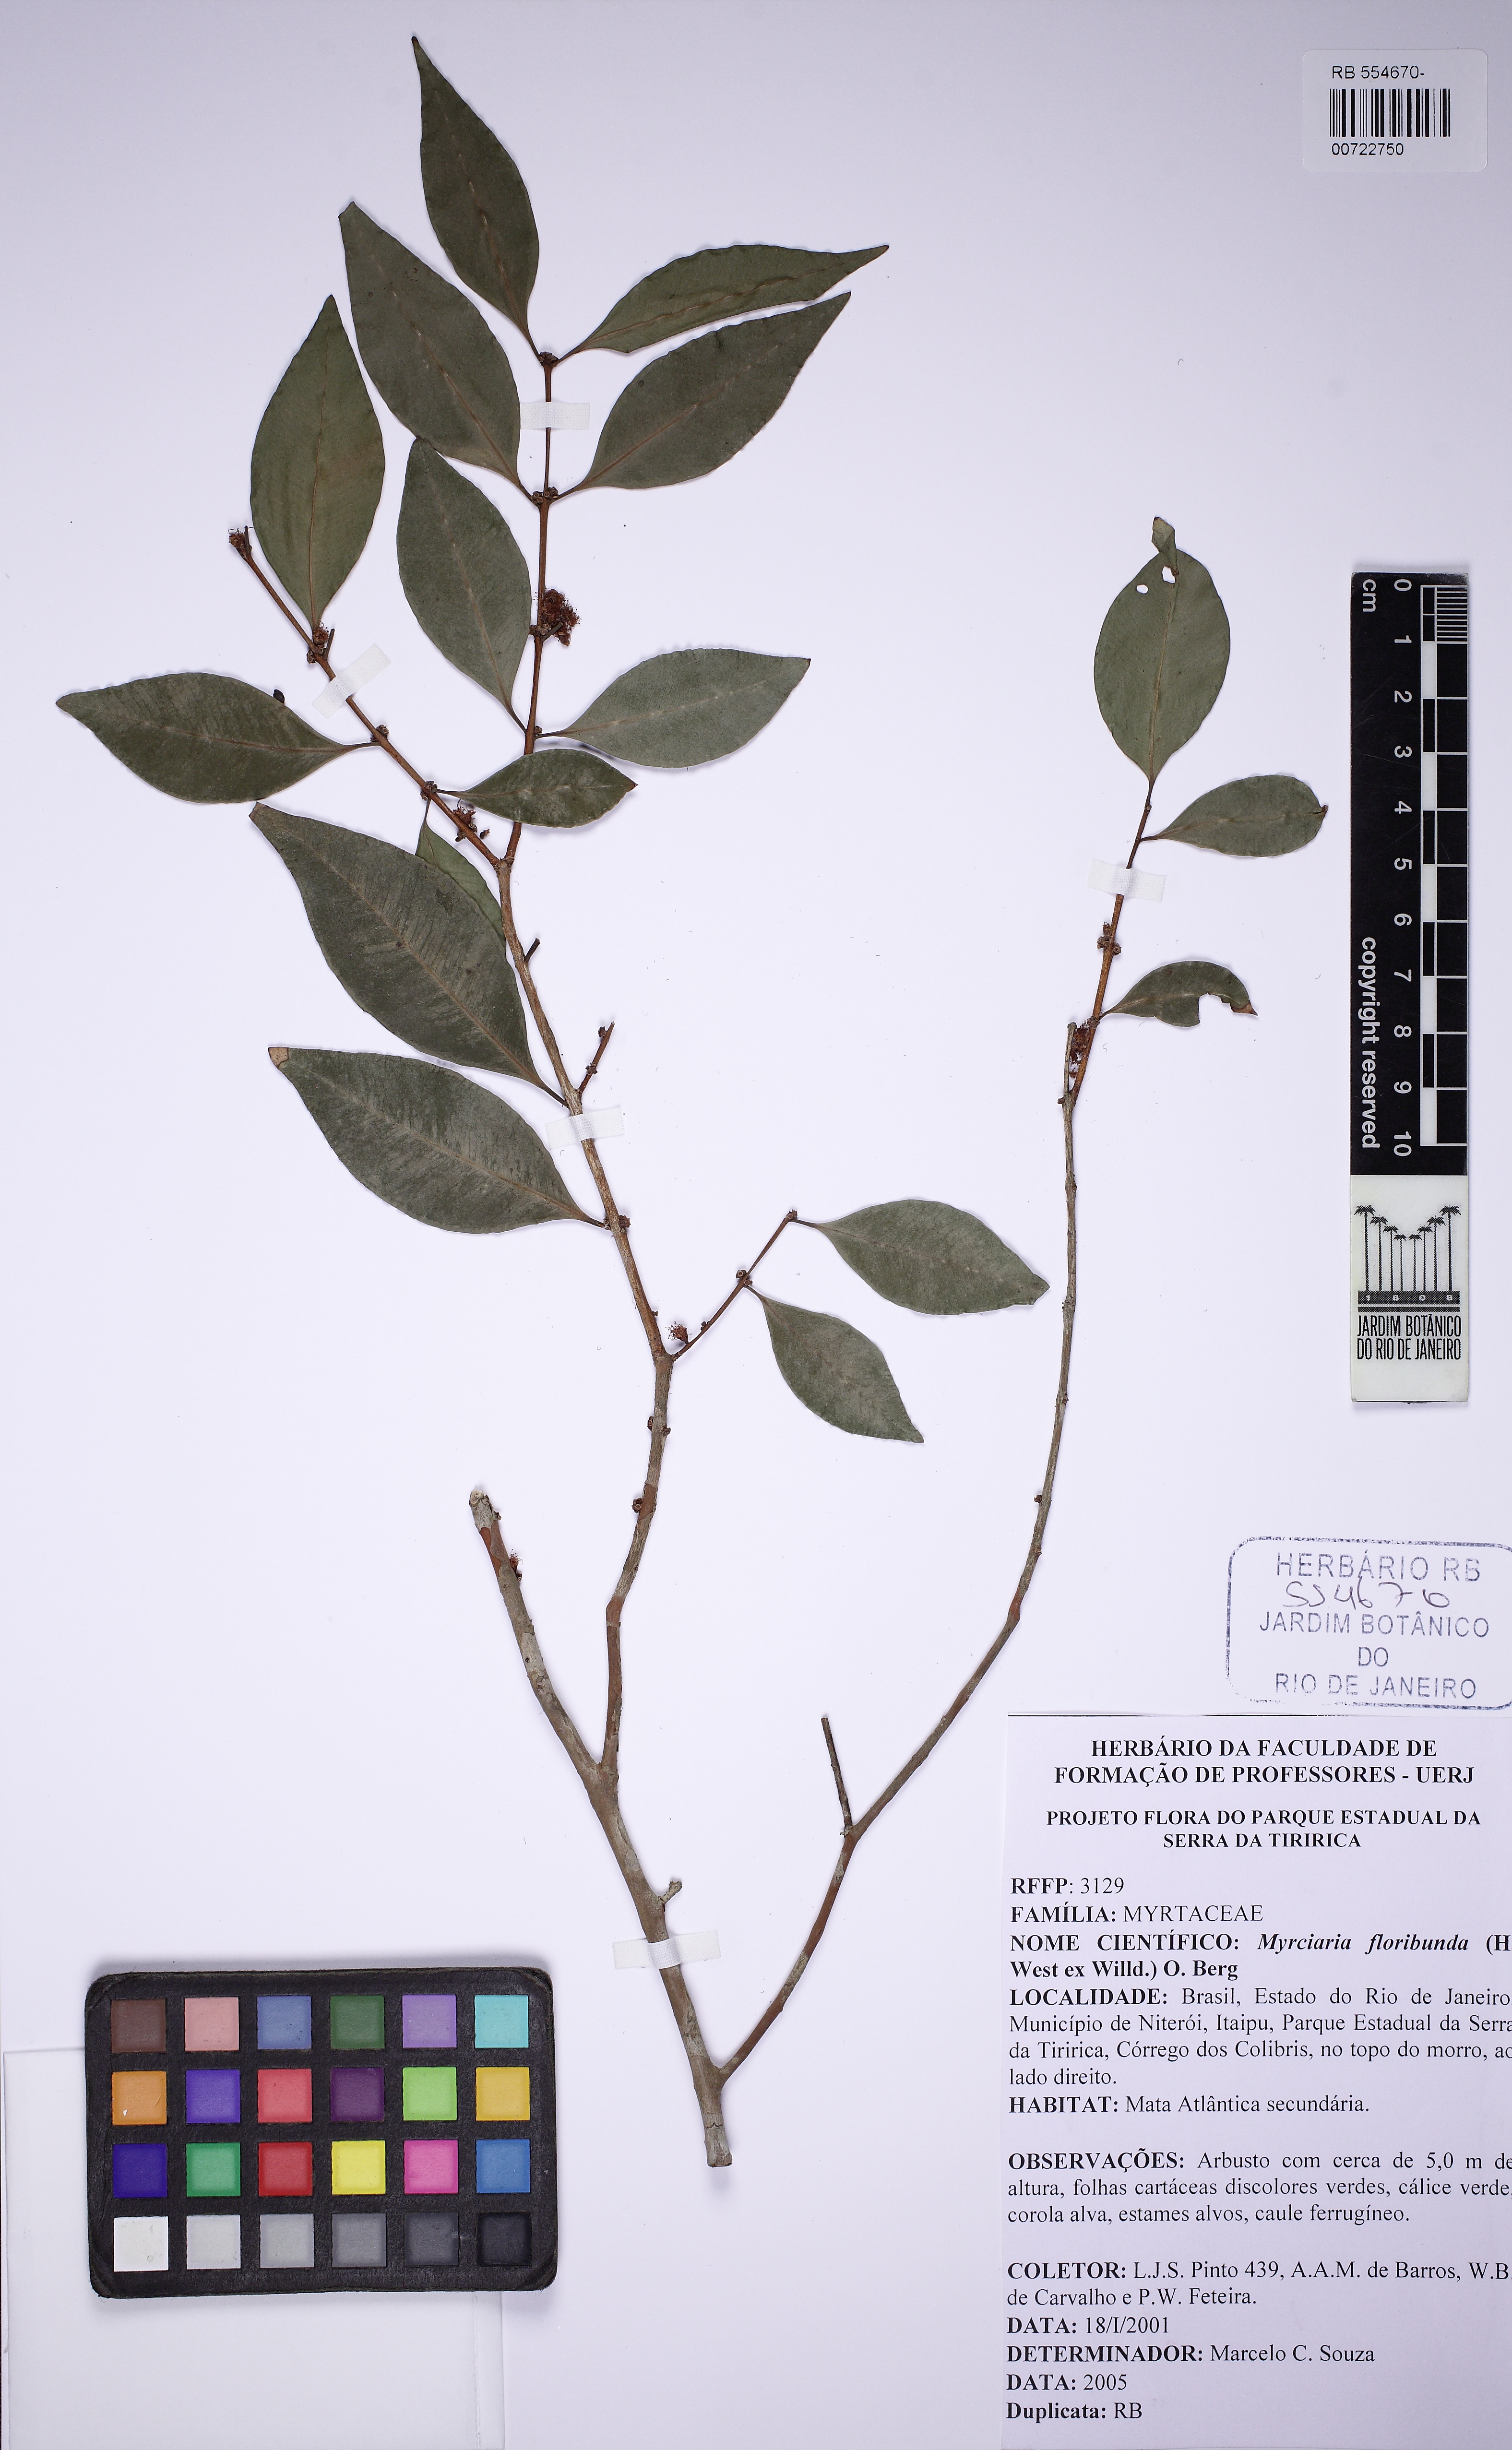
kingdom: Plantae
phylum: Tracheophyta
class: Magnoliopsida
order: Myrtales
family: Myrtaceae
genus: Myrciaria
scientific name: Myrciaria floribunda
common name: Guavaberry
